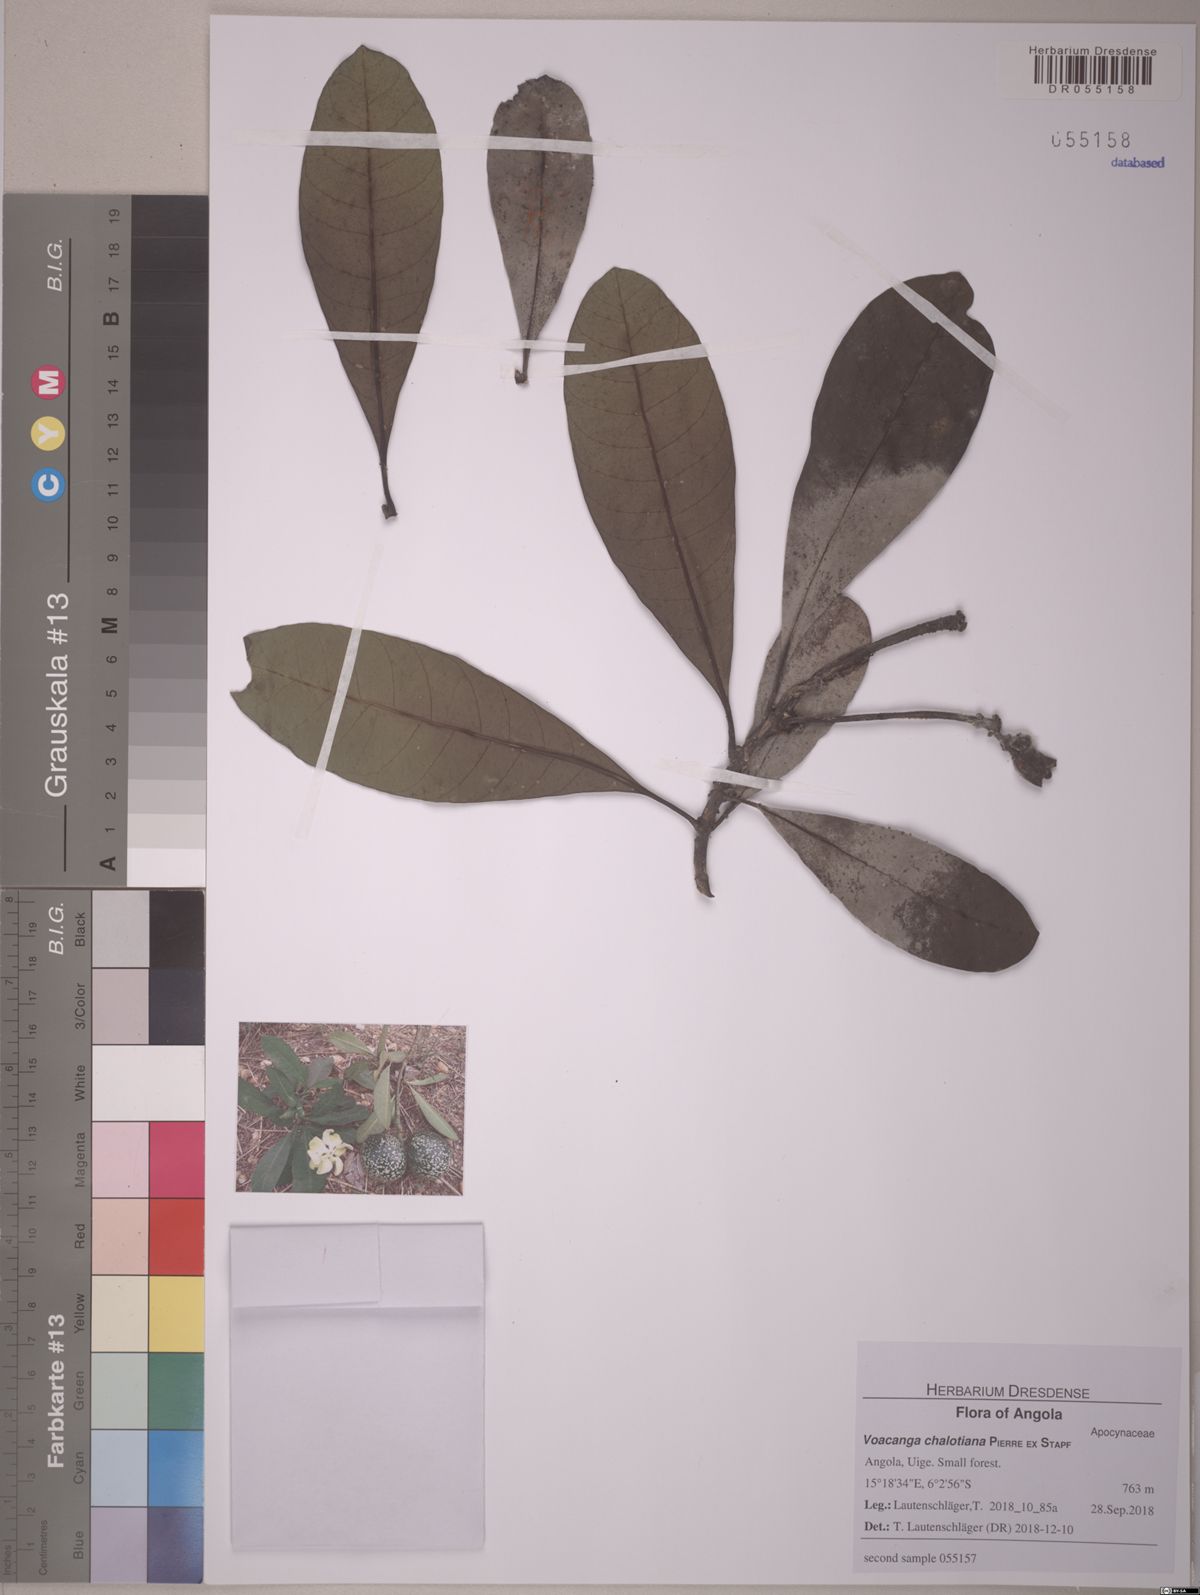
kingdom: Plantae
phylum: Tracheophyta
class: Magnoliopsida
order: Gentianales
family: Apocynaceae
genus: Voacanga
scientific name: Voacanga thouarsii
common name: Wild frangipani
